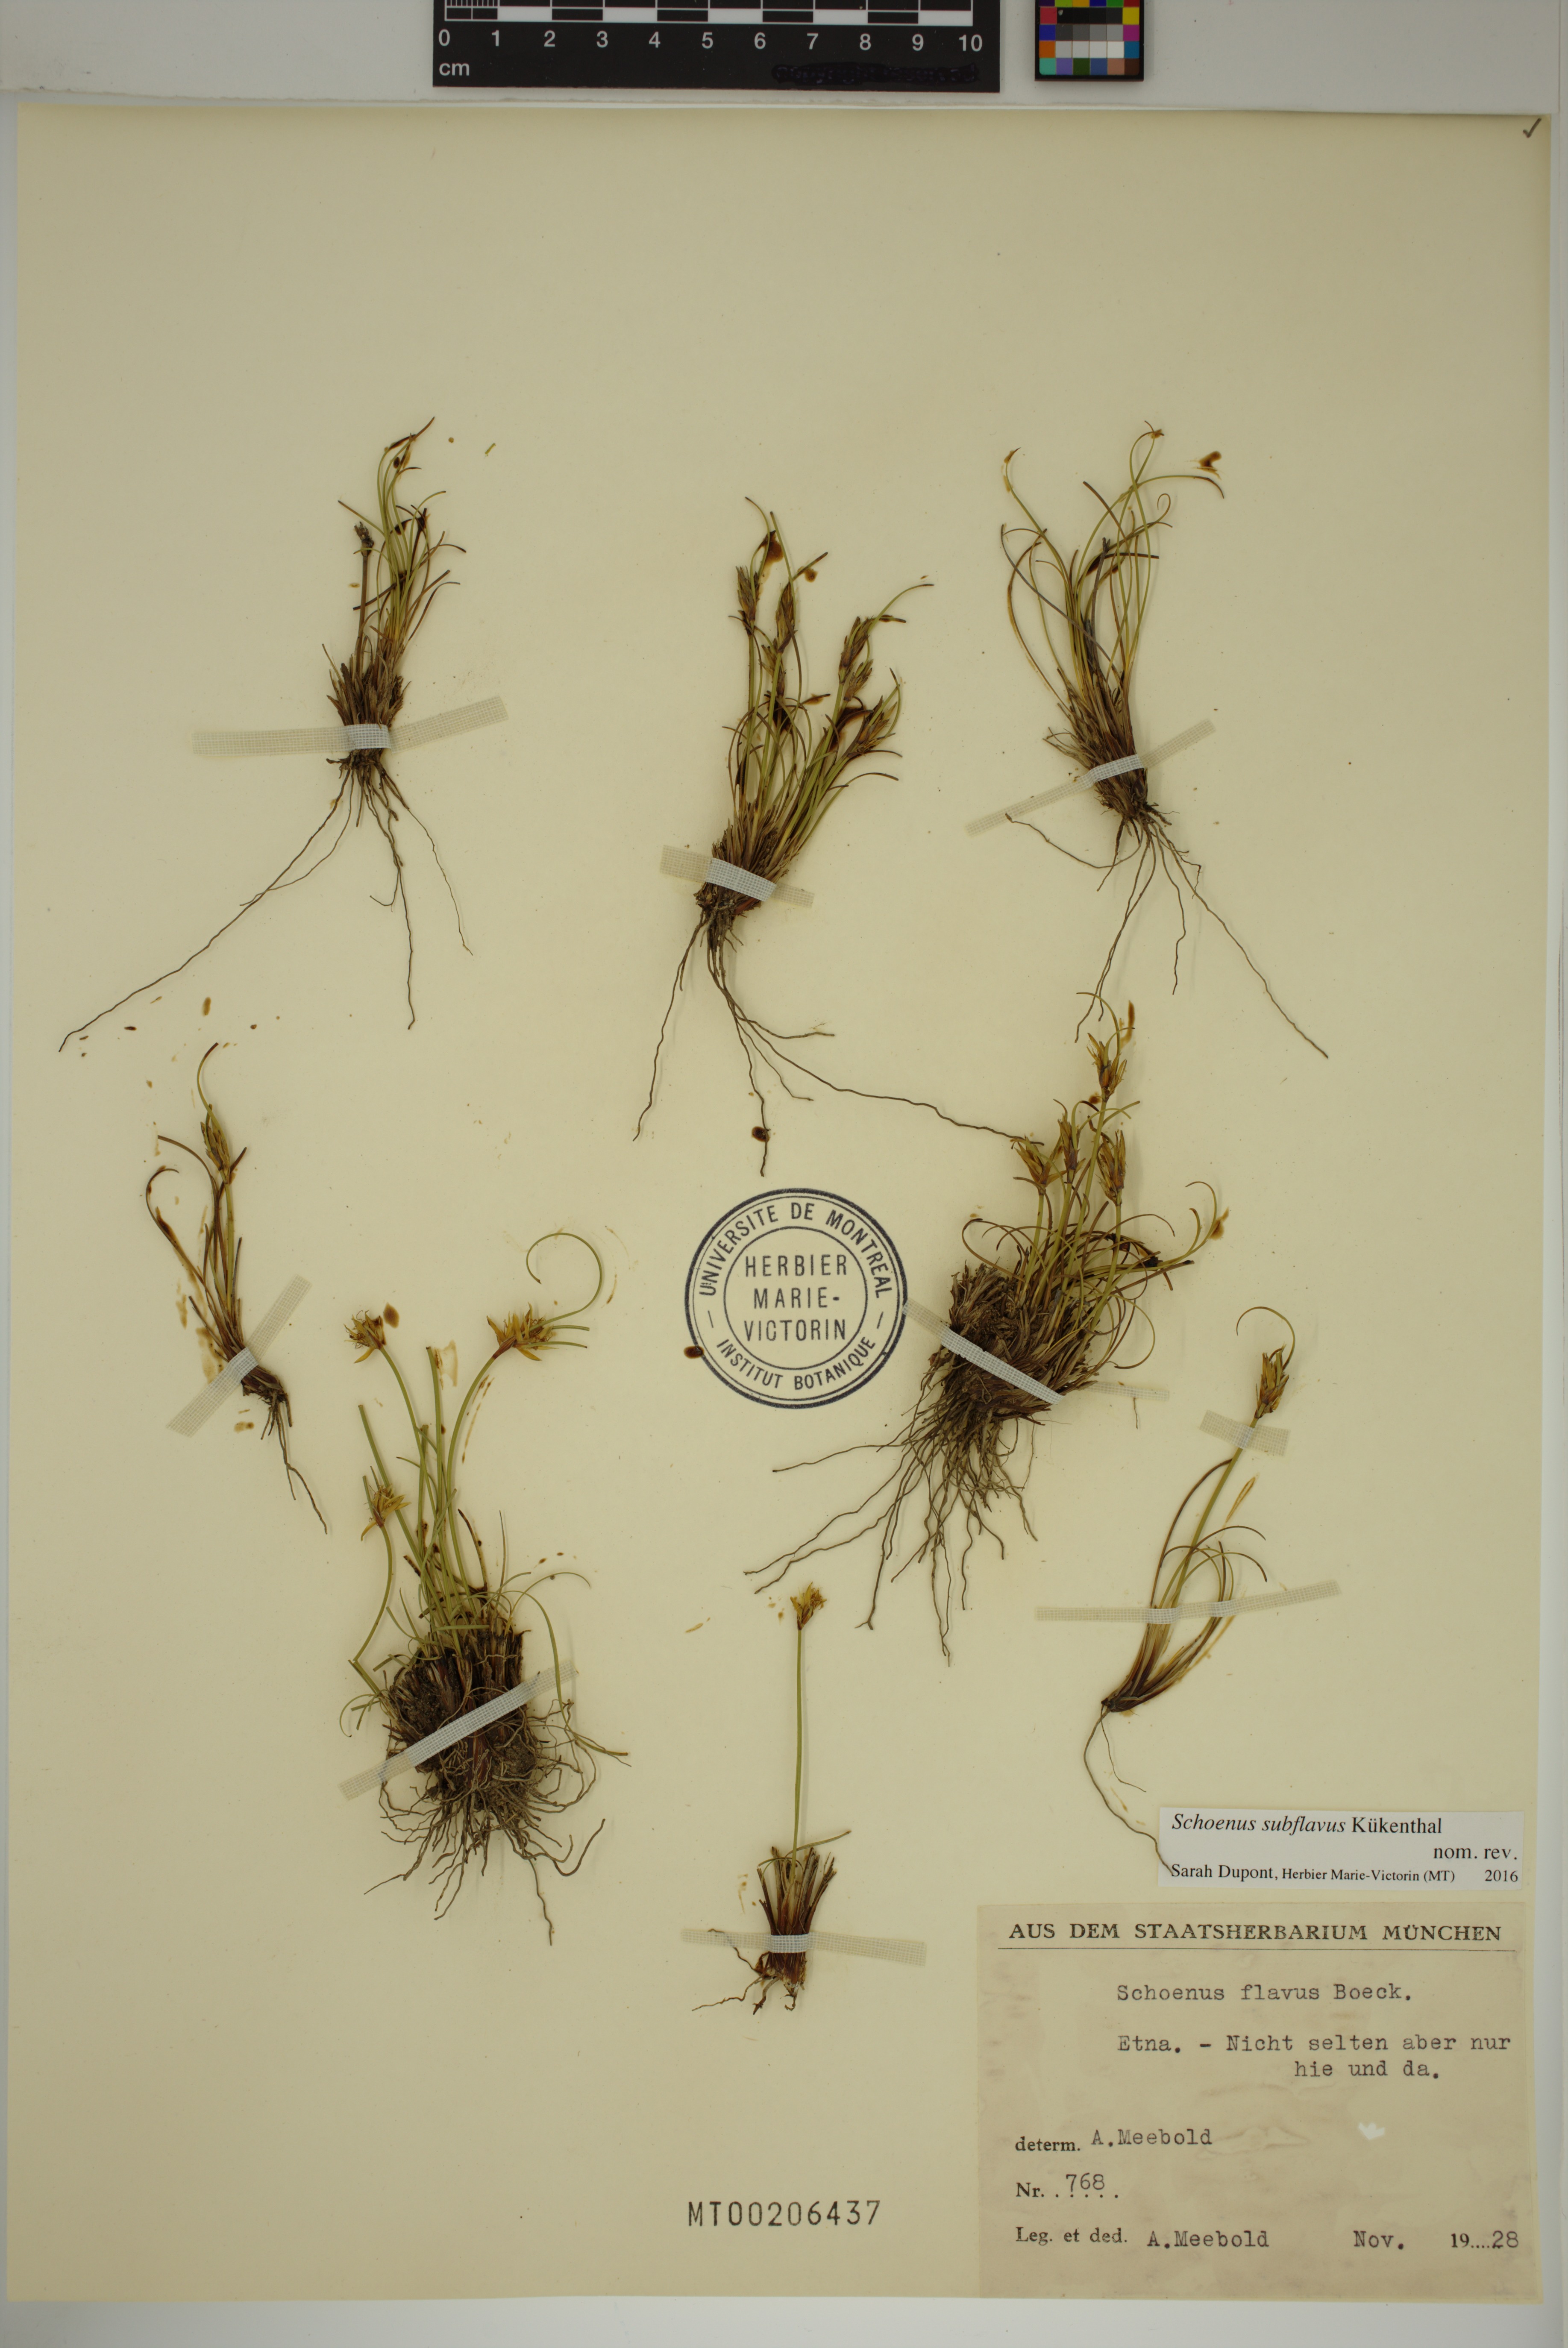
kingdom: Plantae
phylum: Tracheophyta
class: Liliopsida
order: Poales
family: Cyperaceae
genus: Schoenus
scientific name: Schoenus subflavus
